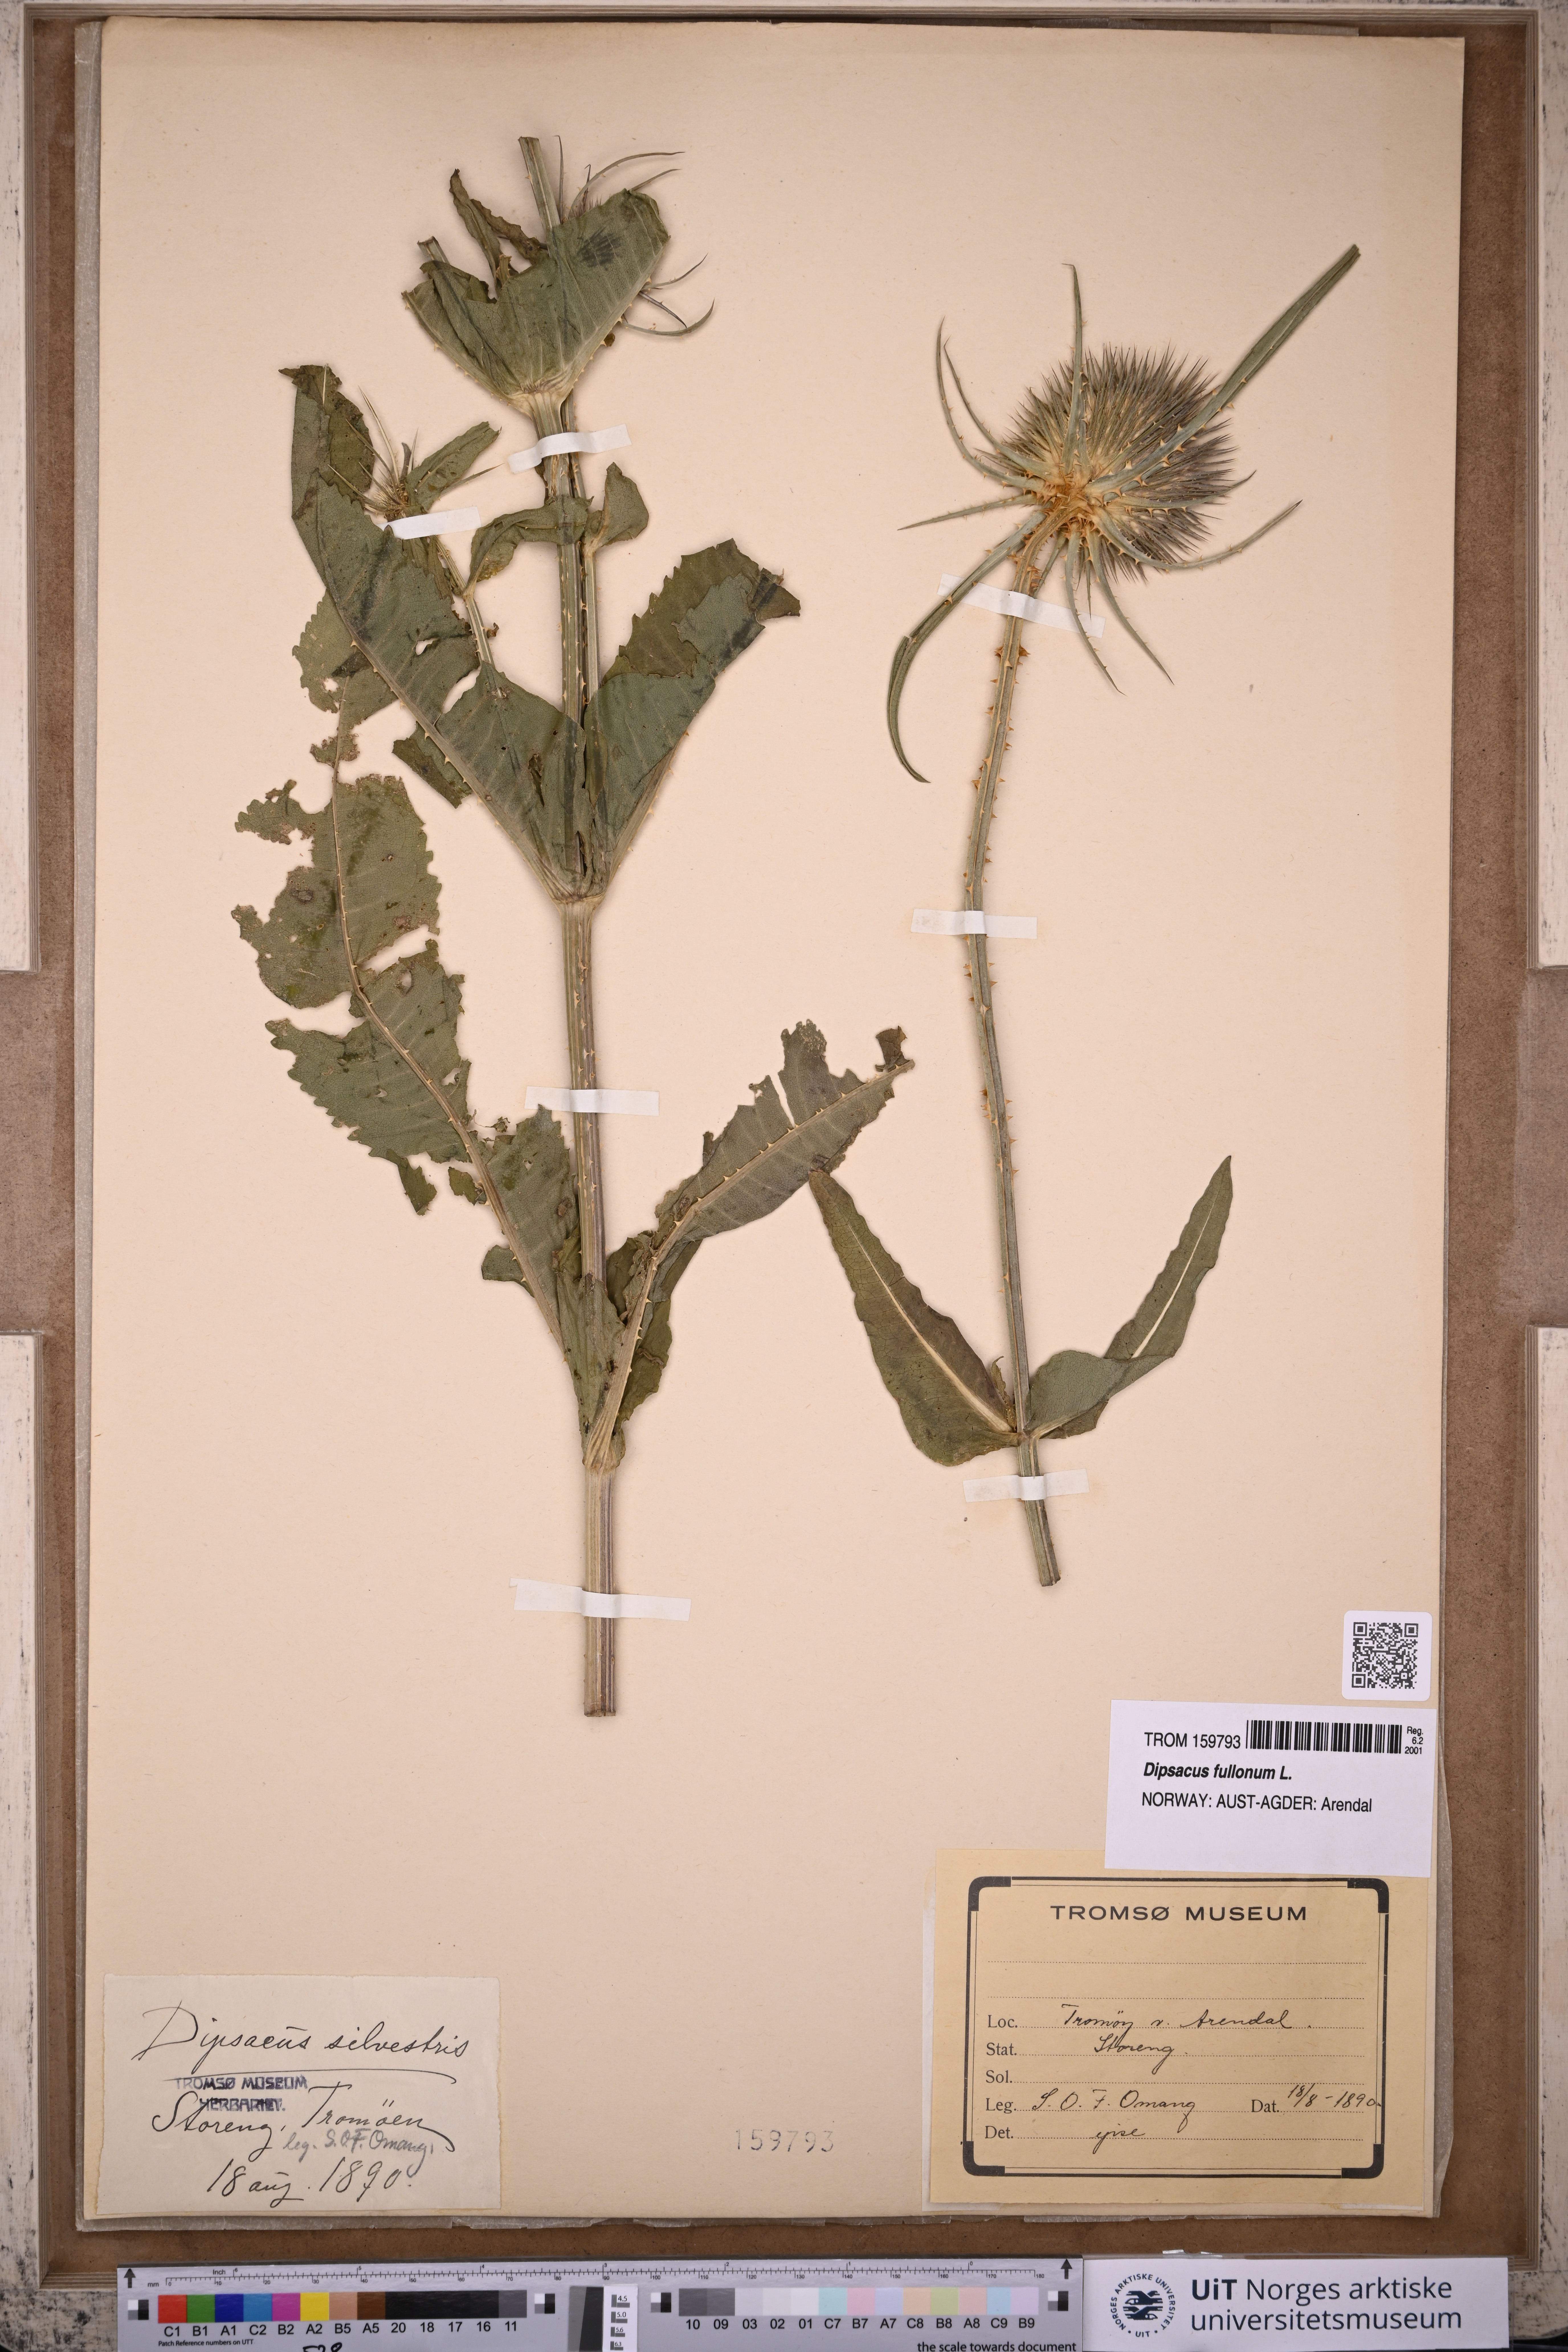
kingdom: Plantae
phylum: Tracheophyta
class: Magnoliopsida
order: Dipsacales
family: Caprifoliaceae
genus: Dipsacus
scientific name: Dipsacus fullonum
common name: Teasel
